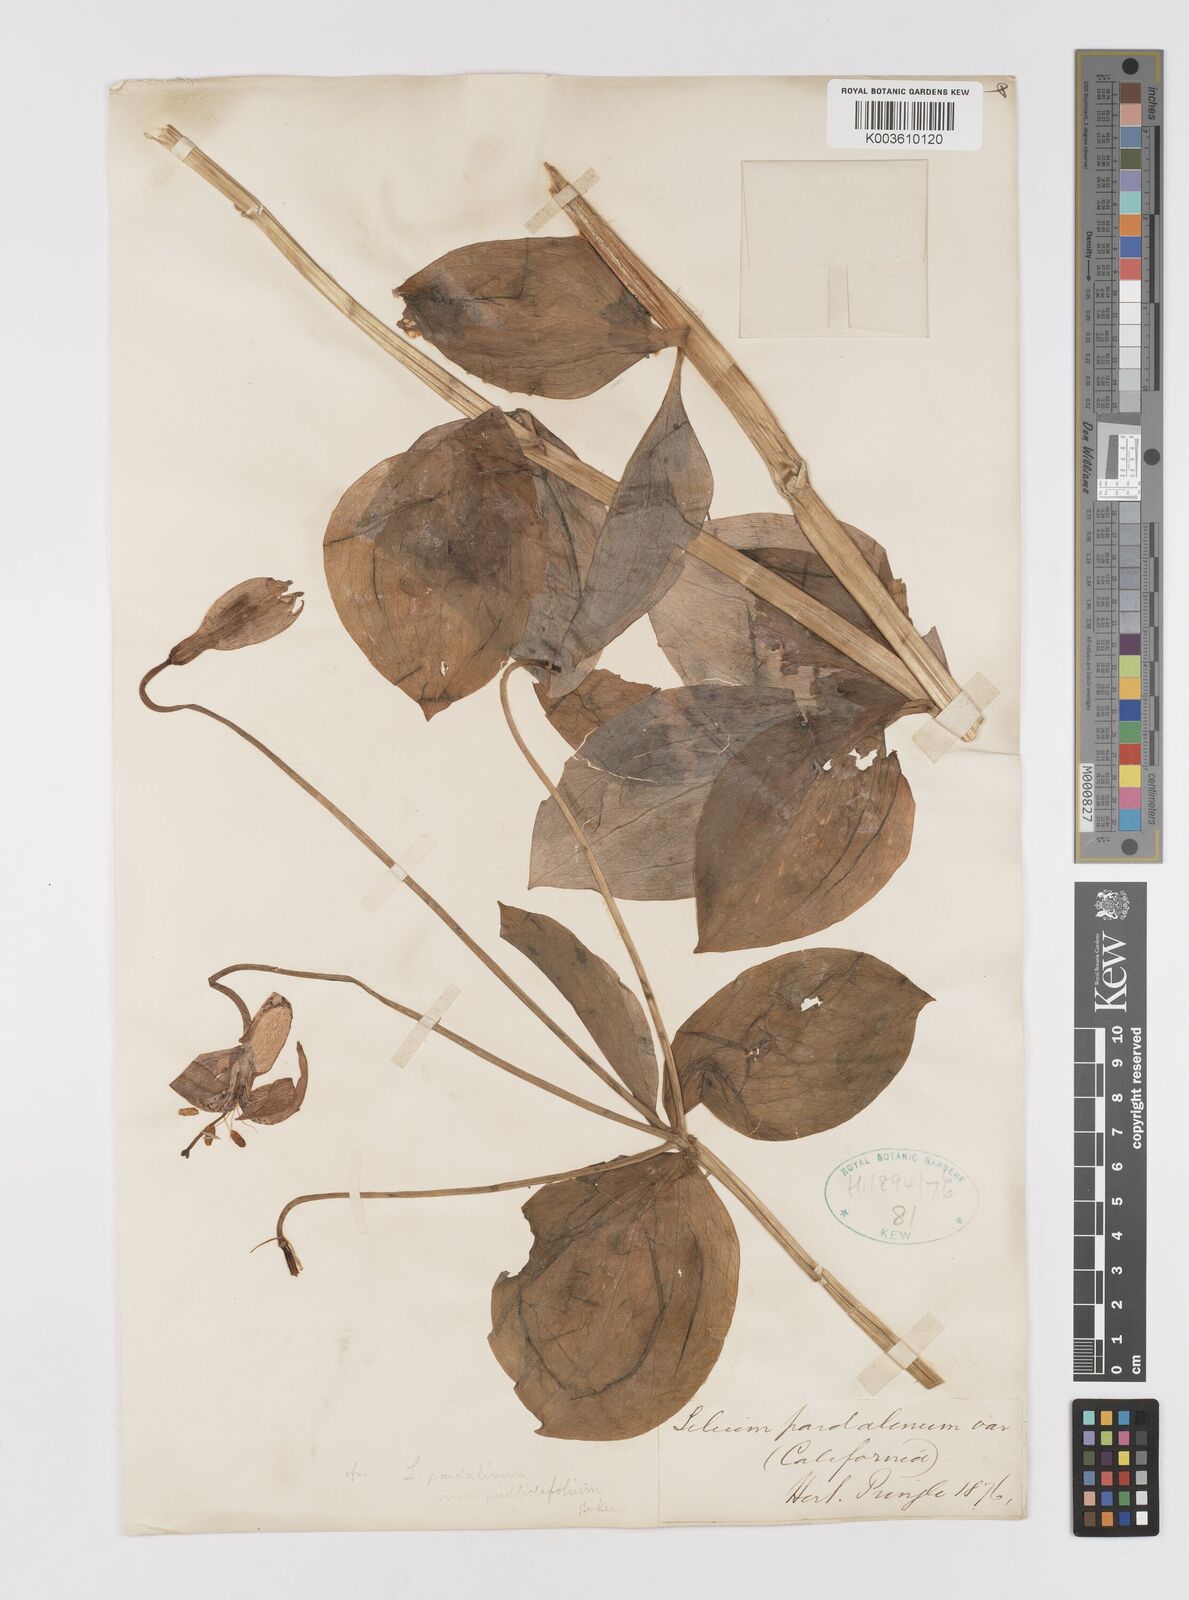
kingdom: Plantae
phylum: Tracheophyta
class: Liliopsida
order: Liliales
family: Liliaceae
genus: Lilium
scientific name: Lilium pardalinum
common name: Panther lily
